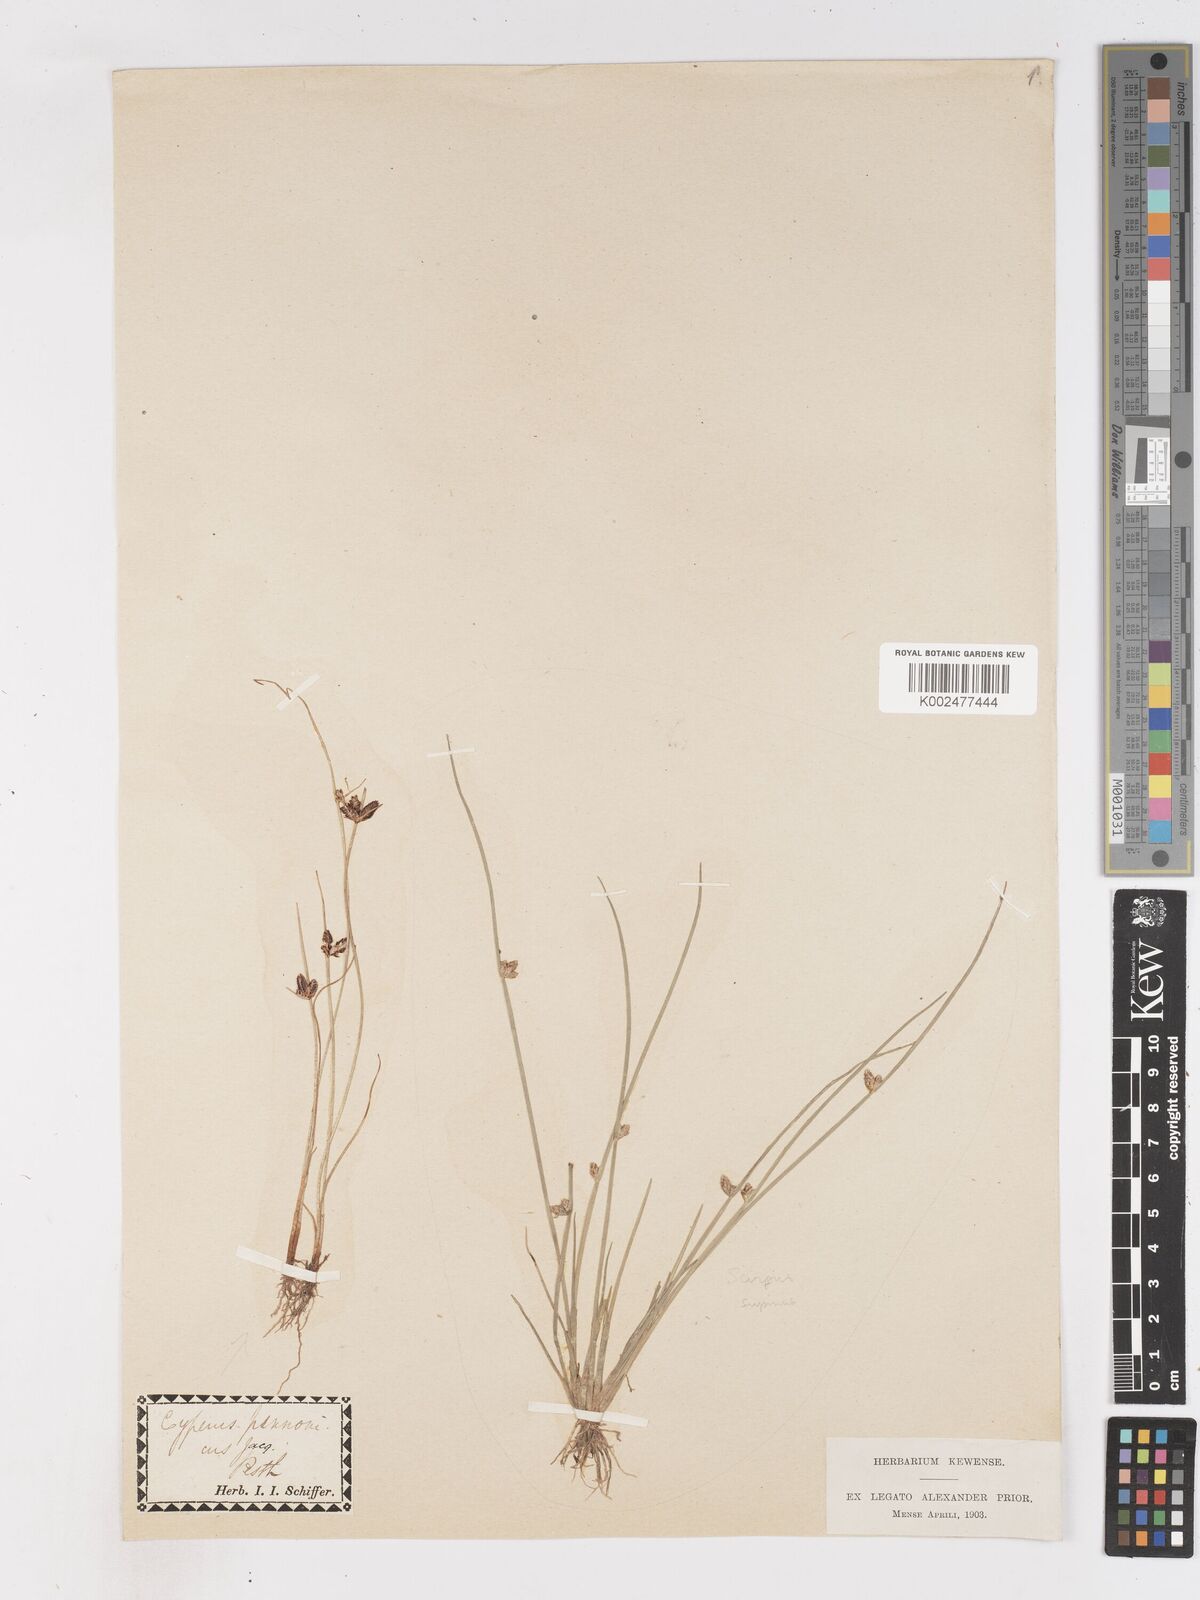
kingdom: Plantae
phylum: Tracheophyta
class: Liliopsida
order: Poales
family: Cyperaceae
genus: Cyperus
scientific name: Cyperus pannonicus
